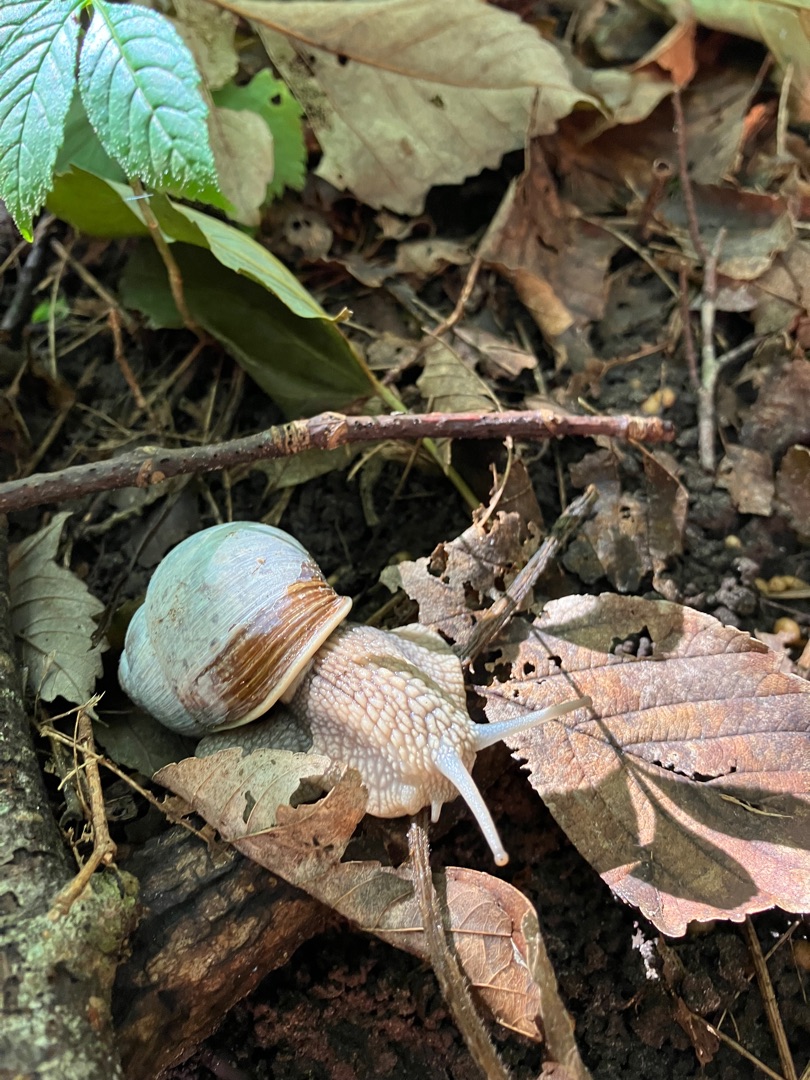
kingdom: Animalia
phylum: Mollusca
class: Gastropoda
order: Stylommatophora
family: Helicidae
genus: Helix
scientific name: Helix pomatia
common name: Vinbjergsnegl
